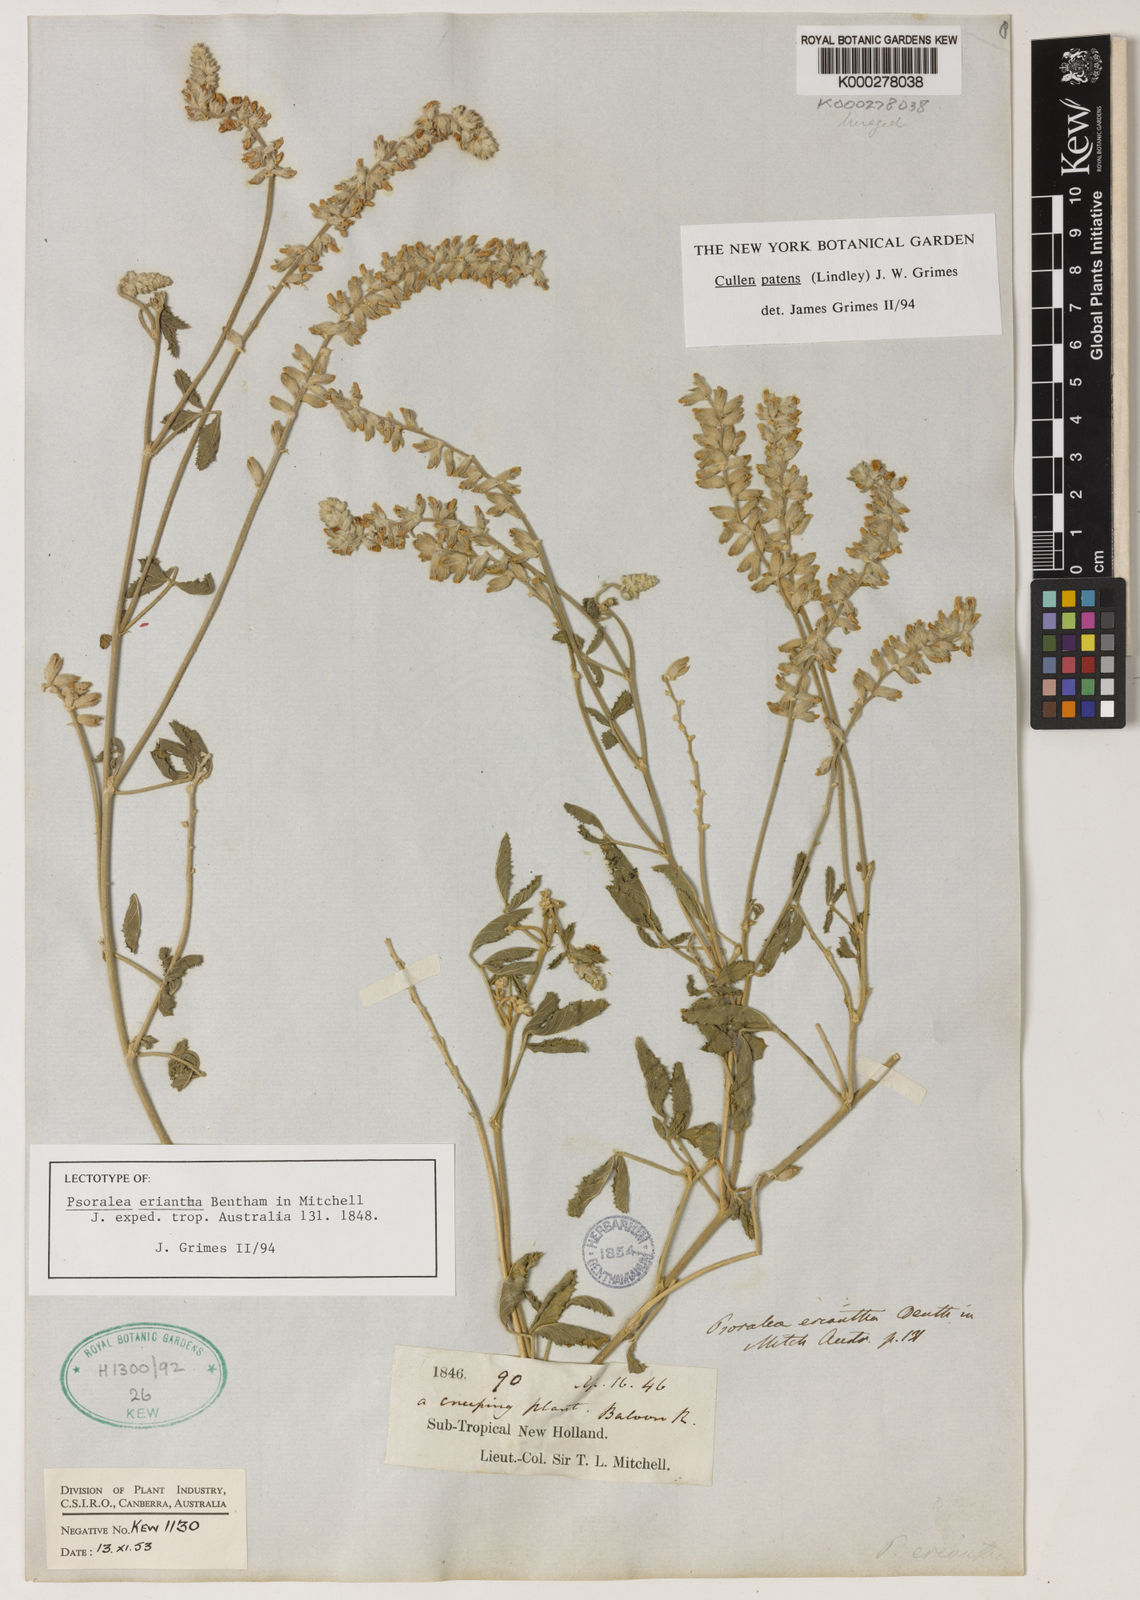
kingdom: Plantae
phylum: Tracheophyta
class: Magnoliopsida
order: Fabales
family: Fabaceae
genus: Cullen
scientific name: Cullen patens
